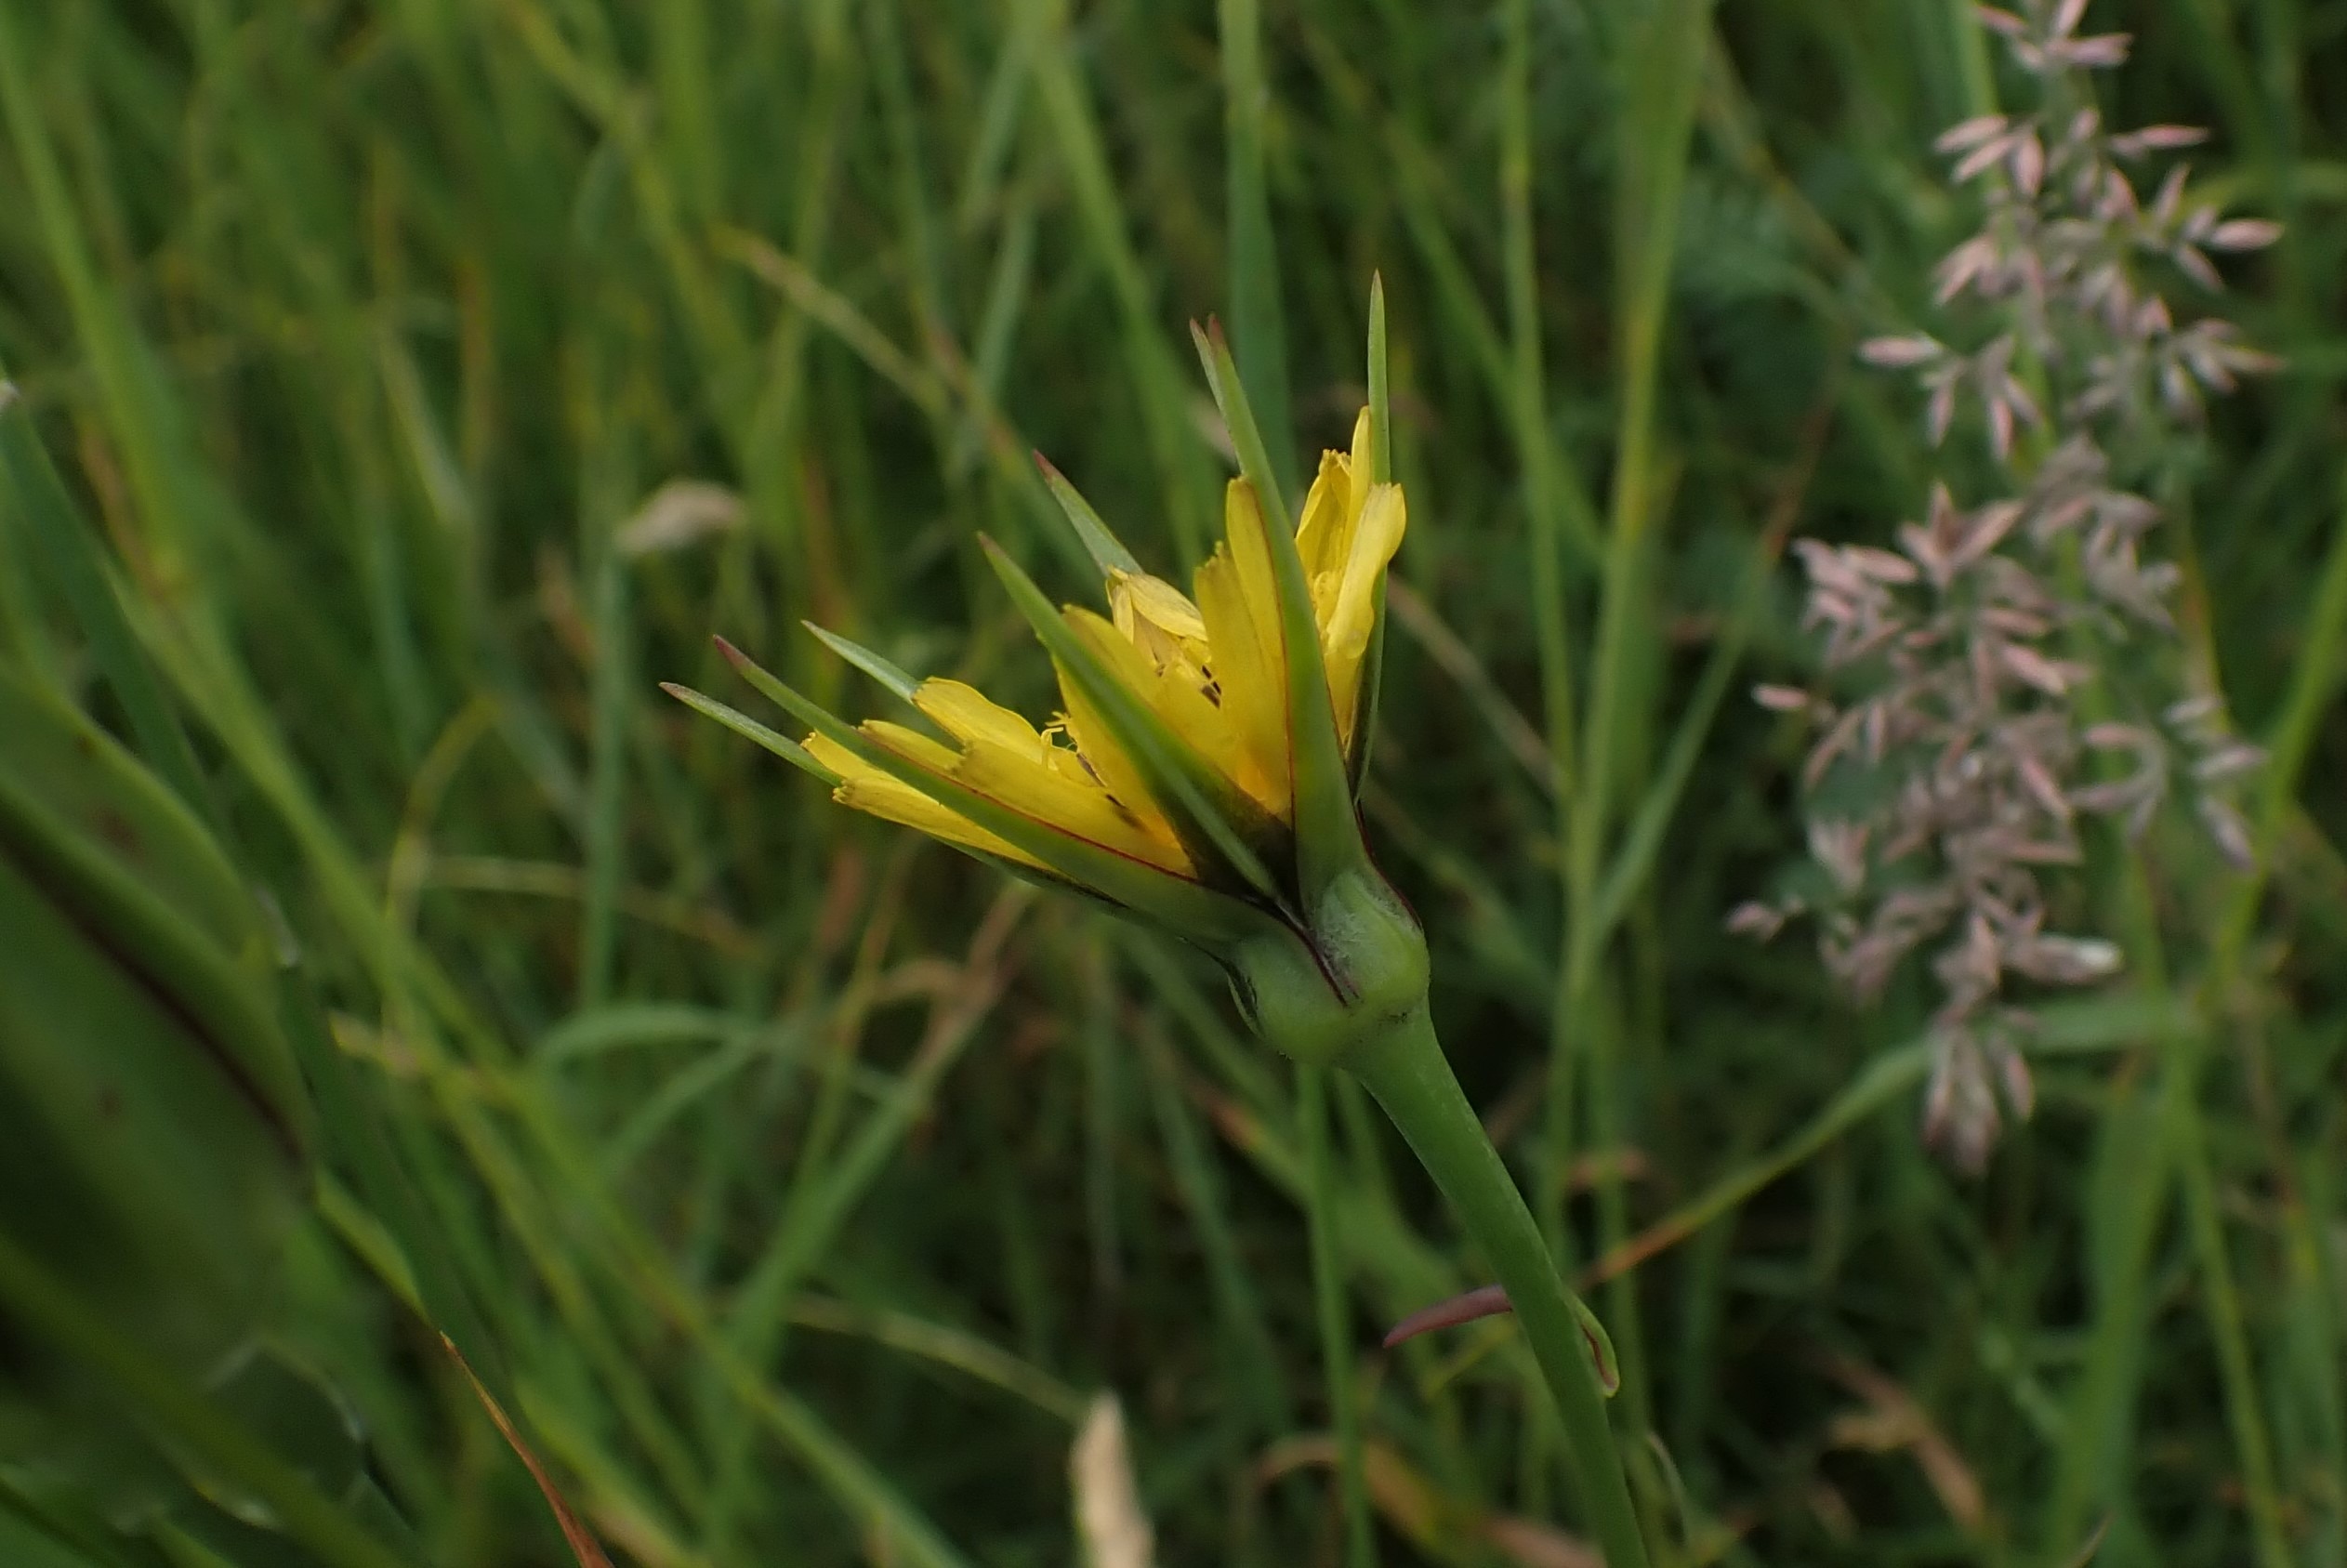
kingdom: Plantae
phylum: Tracheophyta
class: Magnoliopsida
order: Asterales
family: Asteraceae
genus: Tragopogon
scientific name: Tragopogon minor
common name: Småkronet gedeskæg
